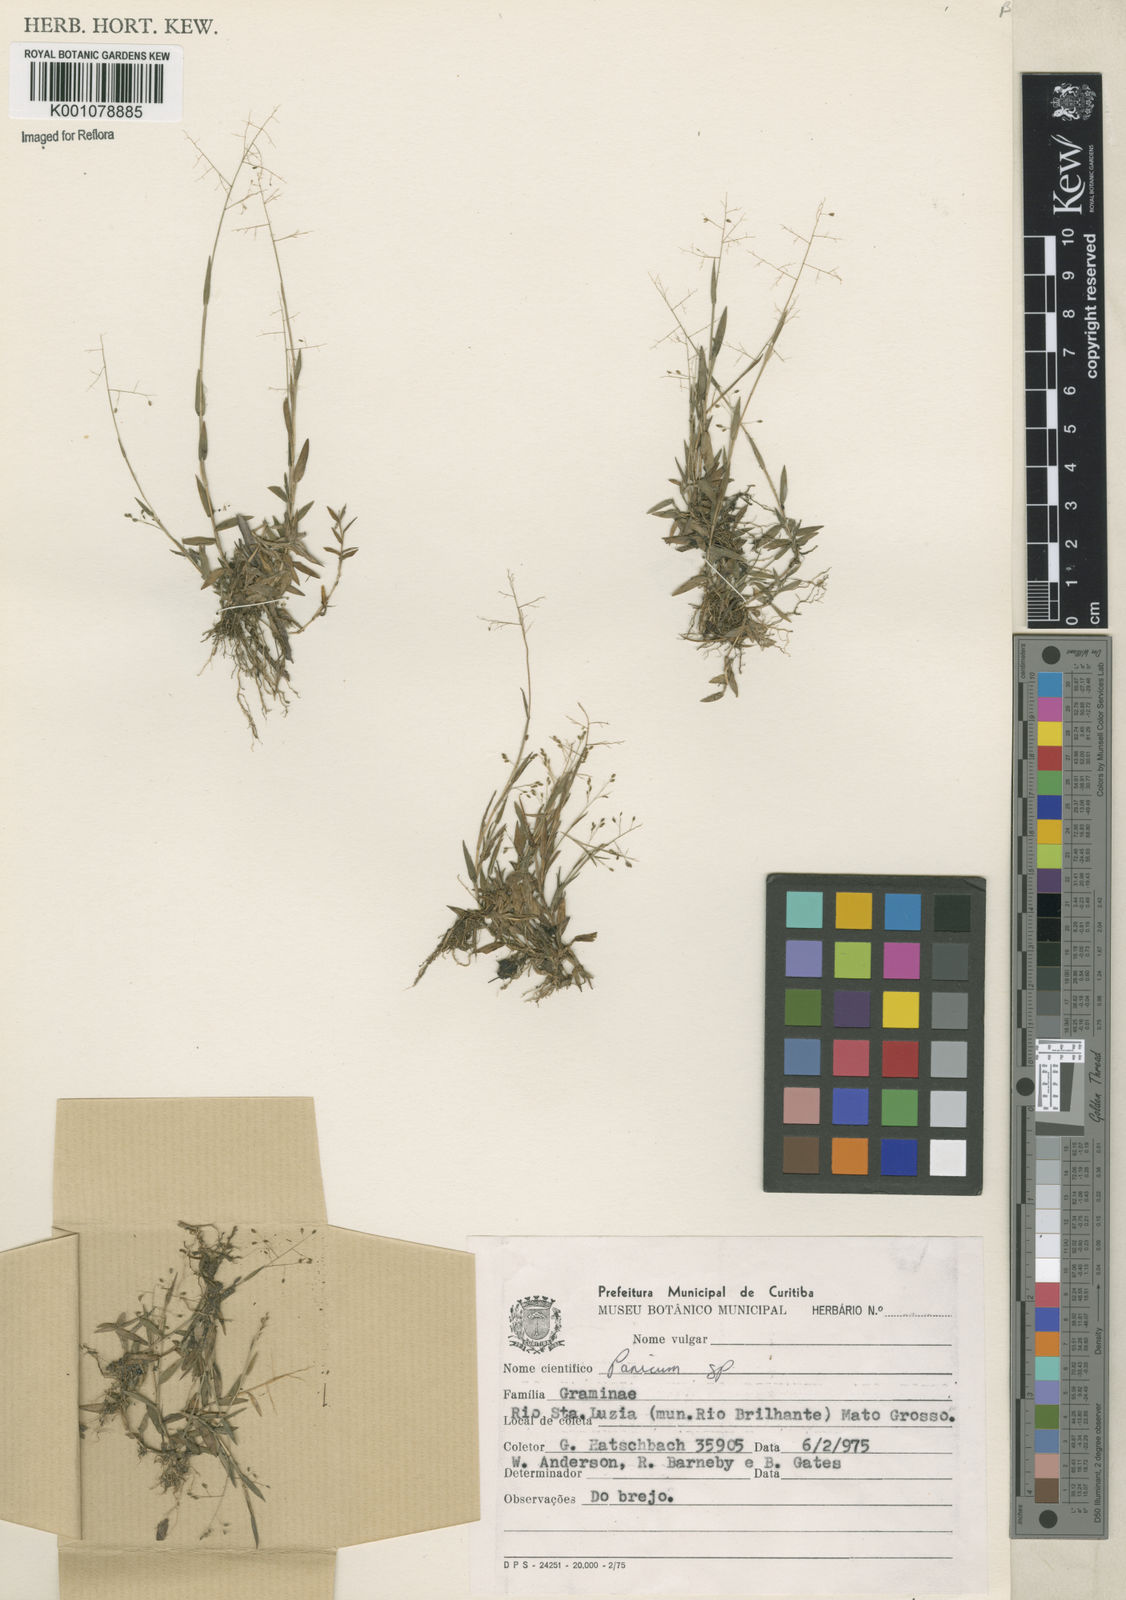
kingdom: Plantae
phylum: Tracheophyta
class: Liliopsida
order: Poales
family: Poaceae
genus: Trichanthecium
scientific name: Trichanthecium parvifolium
